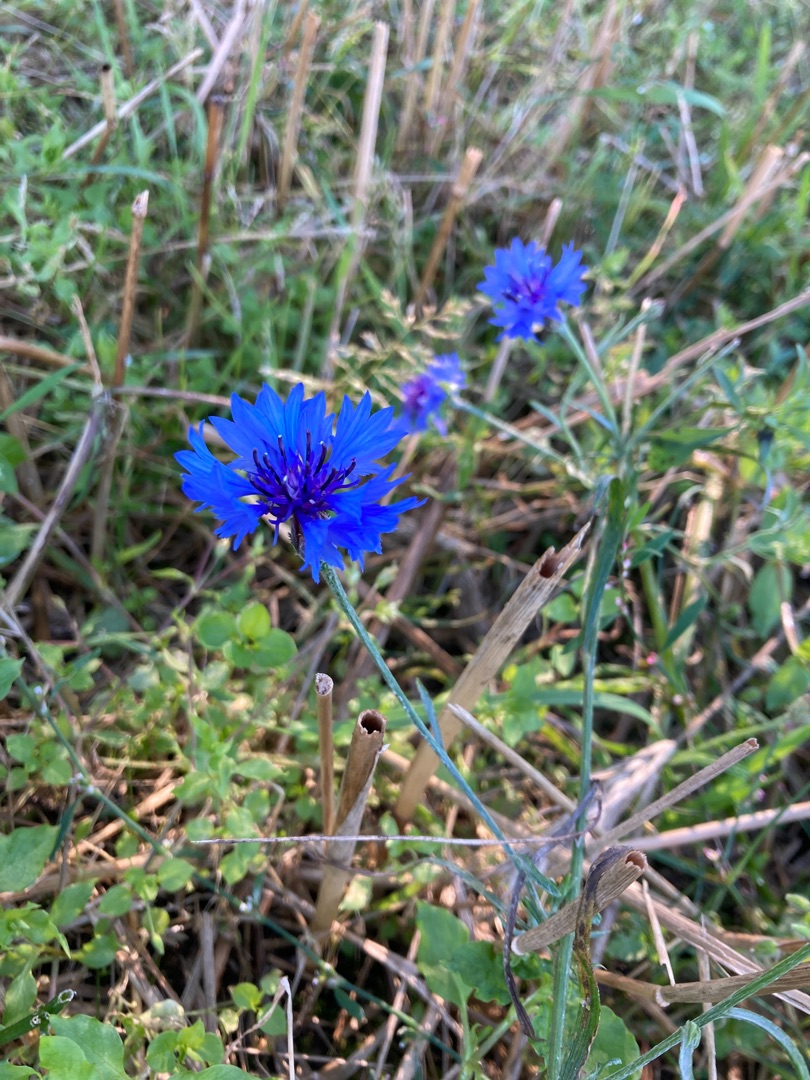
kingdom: Plantae
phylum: Tracheophyta
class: Magnoliopsida
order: Asterales
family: Asteraceae
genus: Centaurea
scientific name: Centaurea cyanus
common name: Kornblomst
